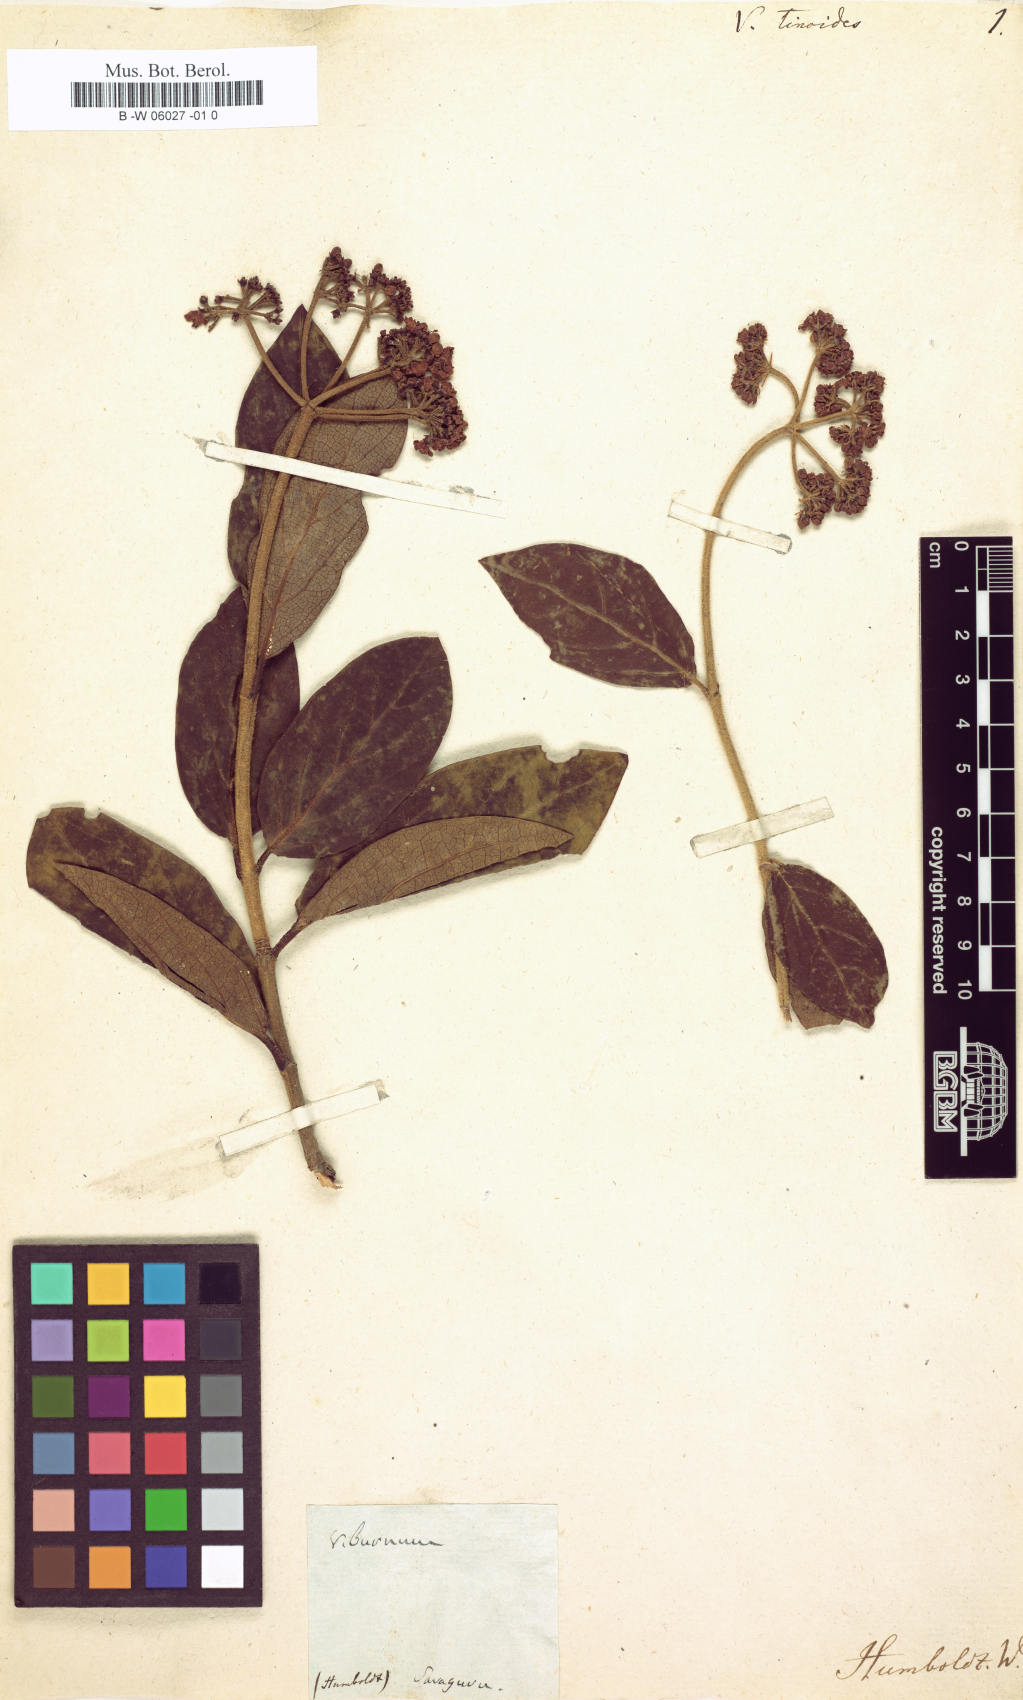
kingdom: Plantae
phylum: Tracheophyta
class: Magnoliopsida
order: Dipsacales
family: Viburnaceae
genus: Viburnum
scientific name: Viburnum tinoides
